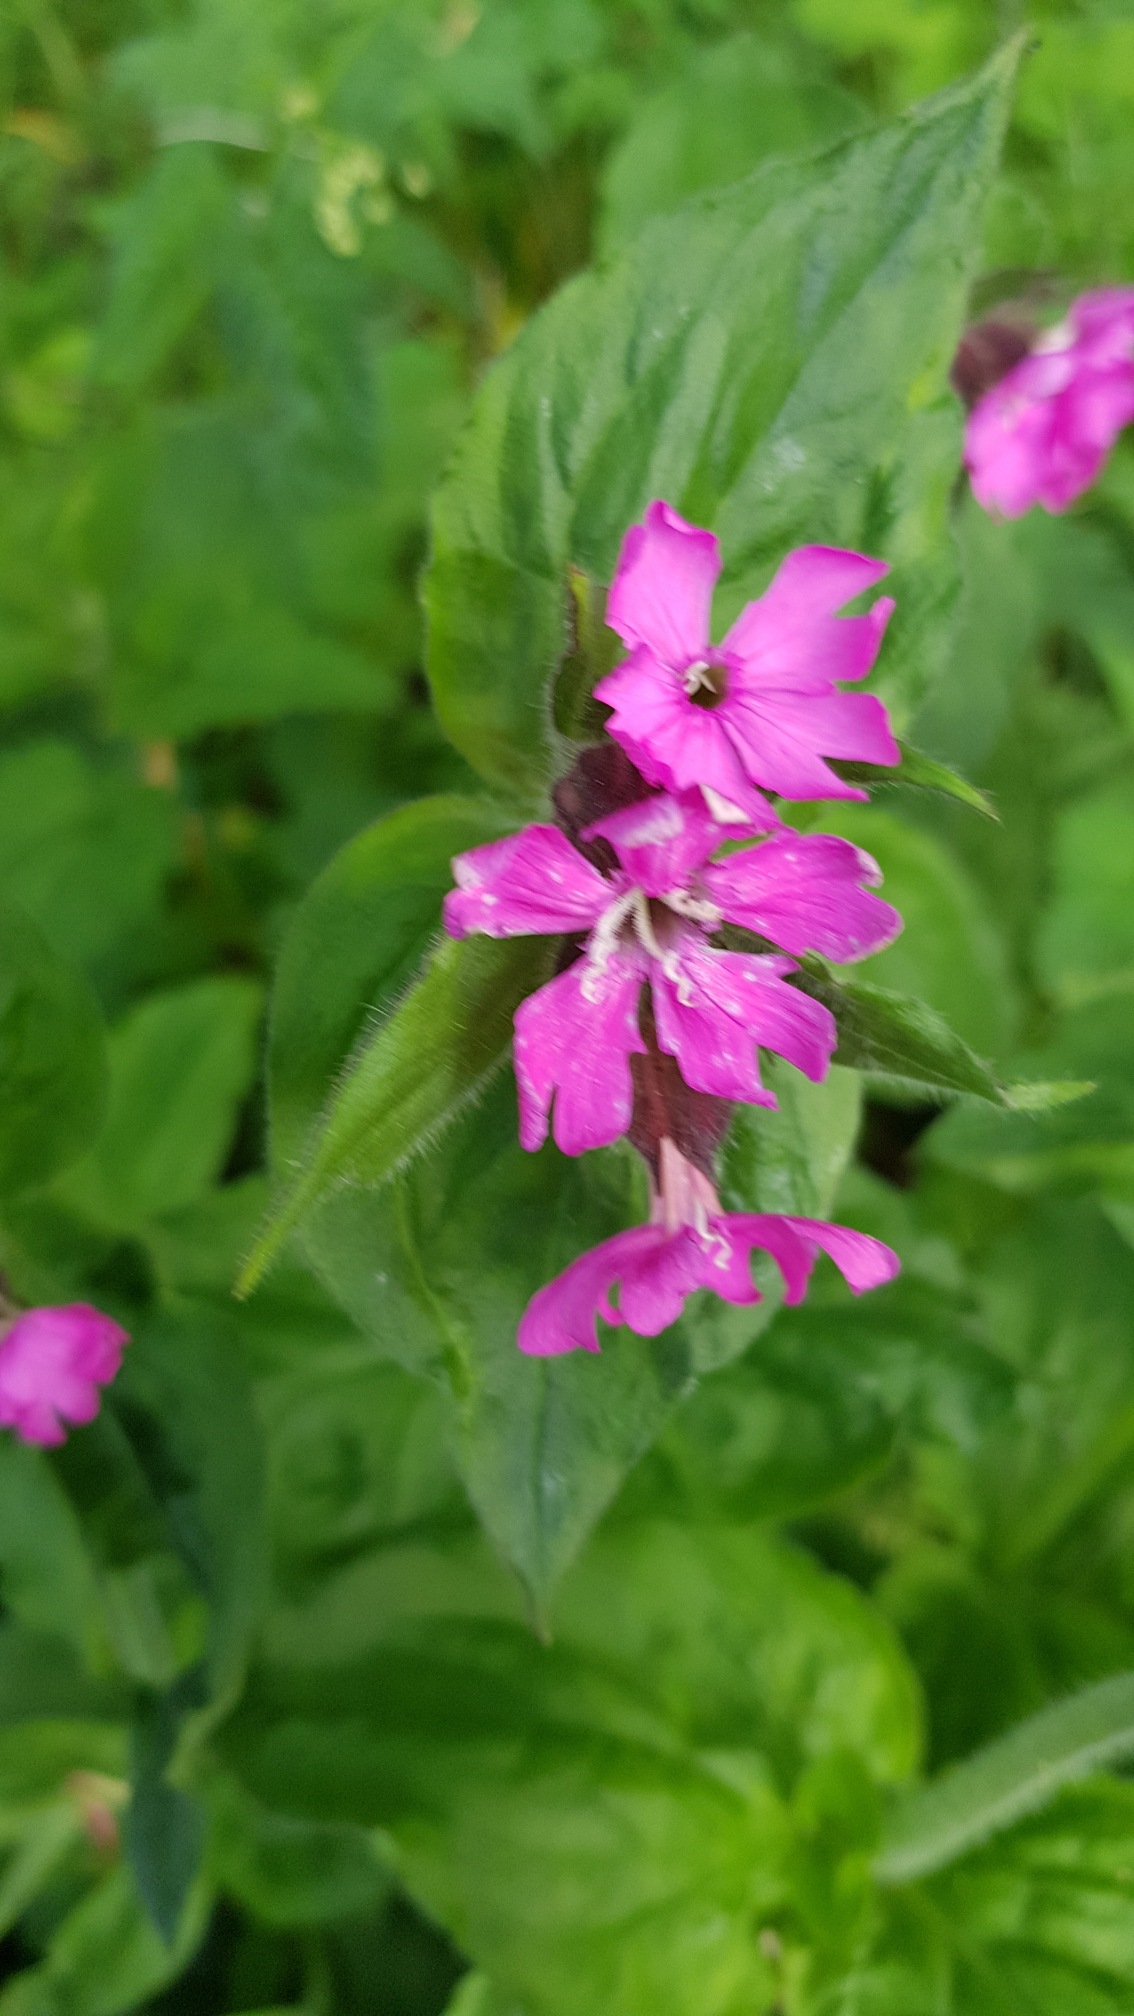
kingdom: Plantae
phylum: Tracheophyta
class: Magnoliopsida
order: Caryophyllales
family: Caryophyllaceae
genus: Silene
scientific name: Silene dioica
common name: Dagpragtstjerne
